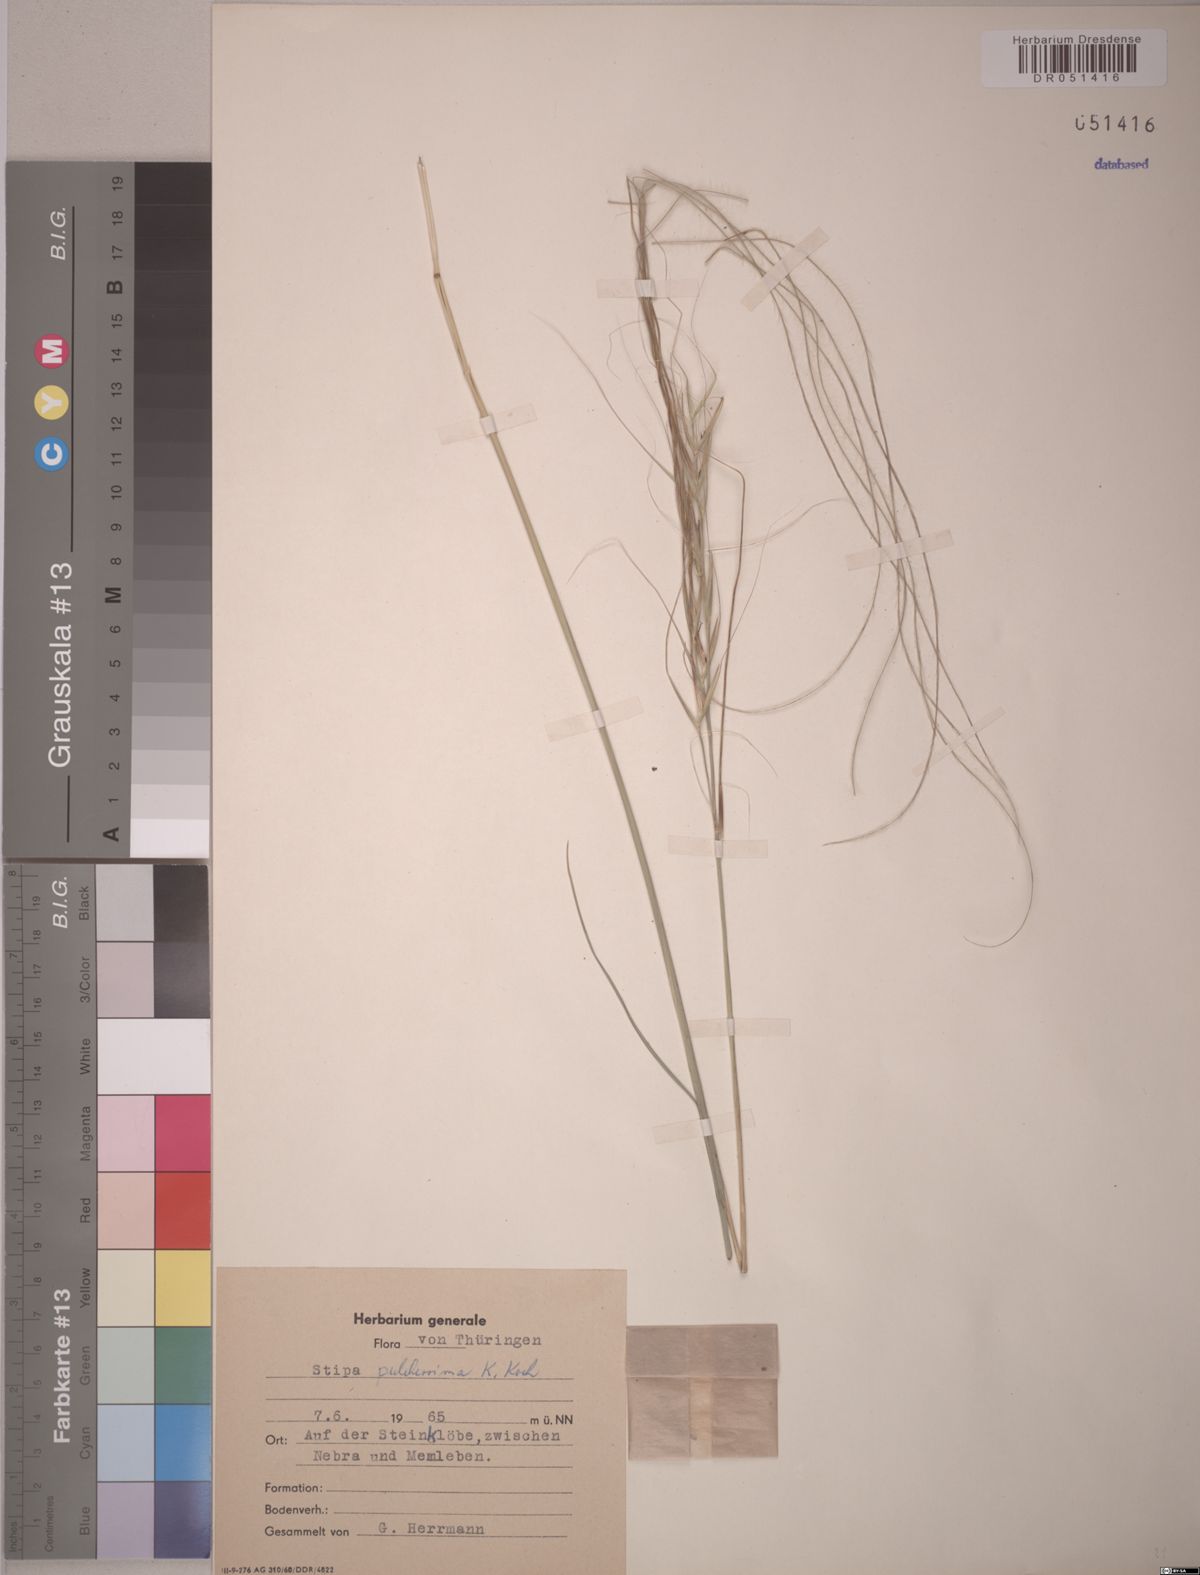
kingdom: Plantae
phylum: Tracheophyta
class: Liliopsida
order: Poales
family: Poaceae
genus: Stipa
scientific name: Stipa pulcherrima
